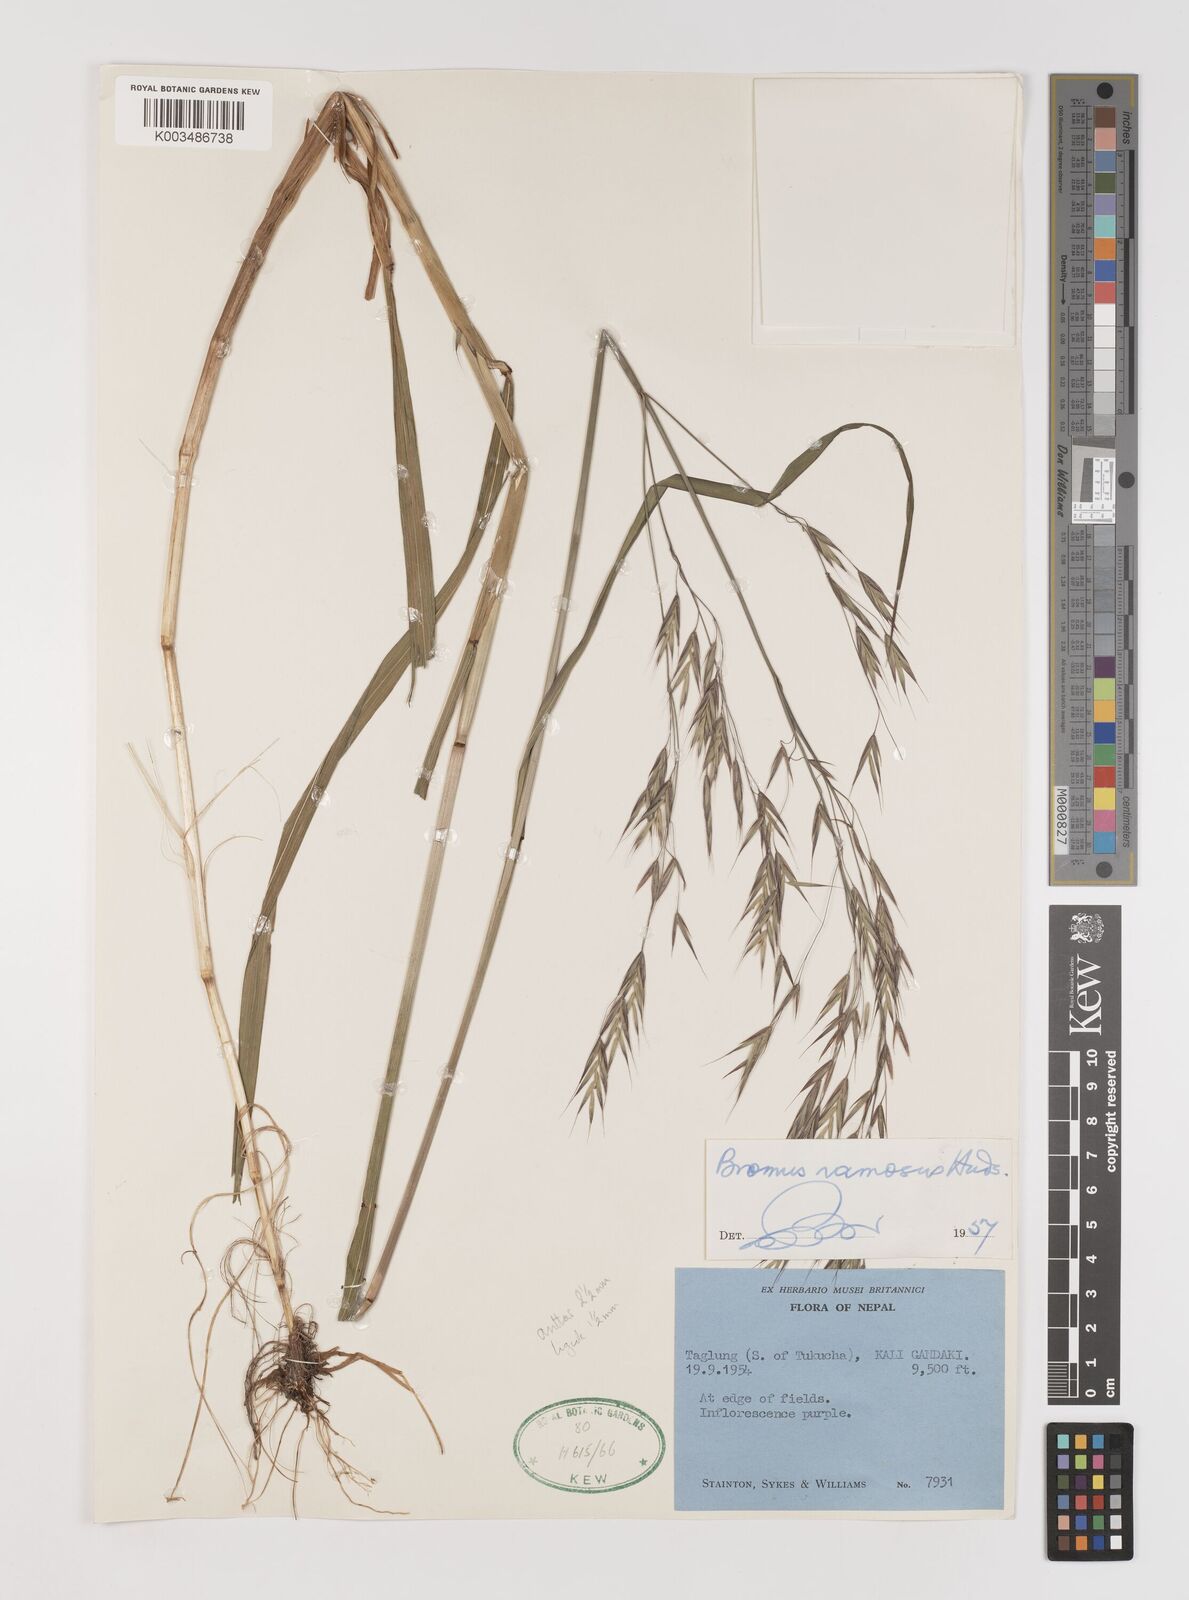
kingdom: Plantae
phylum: Tracheophyta
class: Liliopsida
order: Poales
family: Poaceae
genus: Brachypodium
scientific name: Brachypodium retusum
